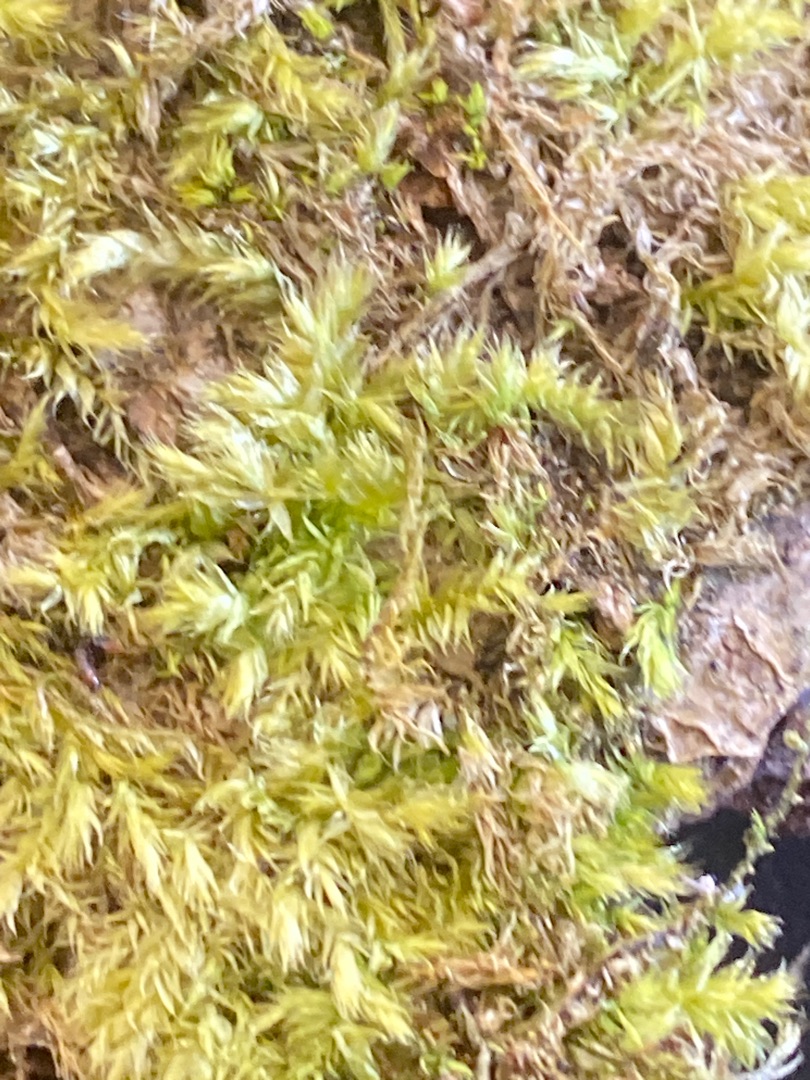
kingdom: Plantae
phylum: Bryophyta
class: Bryopsida
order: Hypnales
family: Brachytheciaceae
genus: Brachythecium
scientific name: Brachythecium rutabulum
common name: Almindelig kortkapsel
